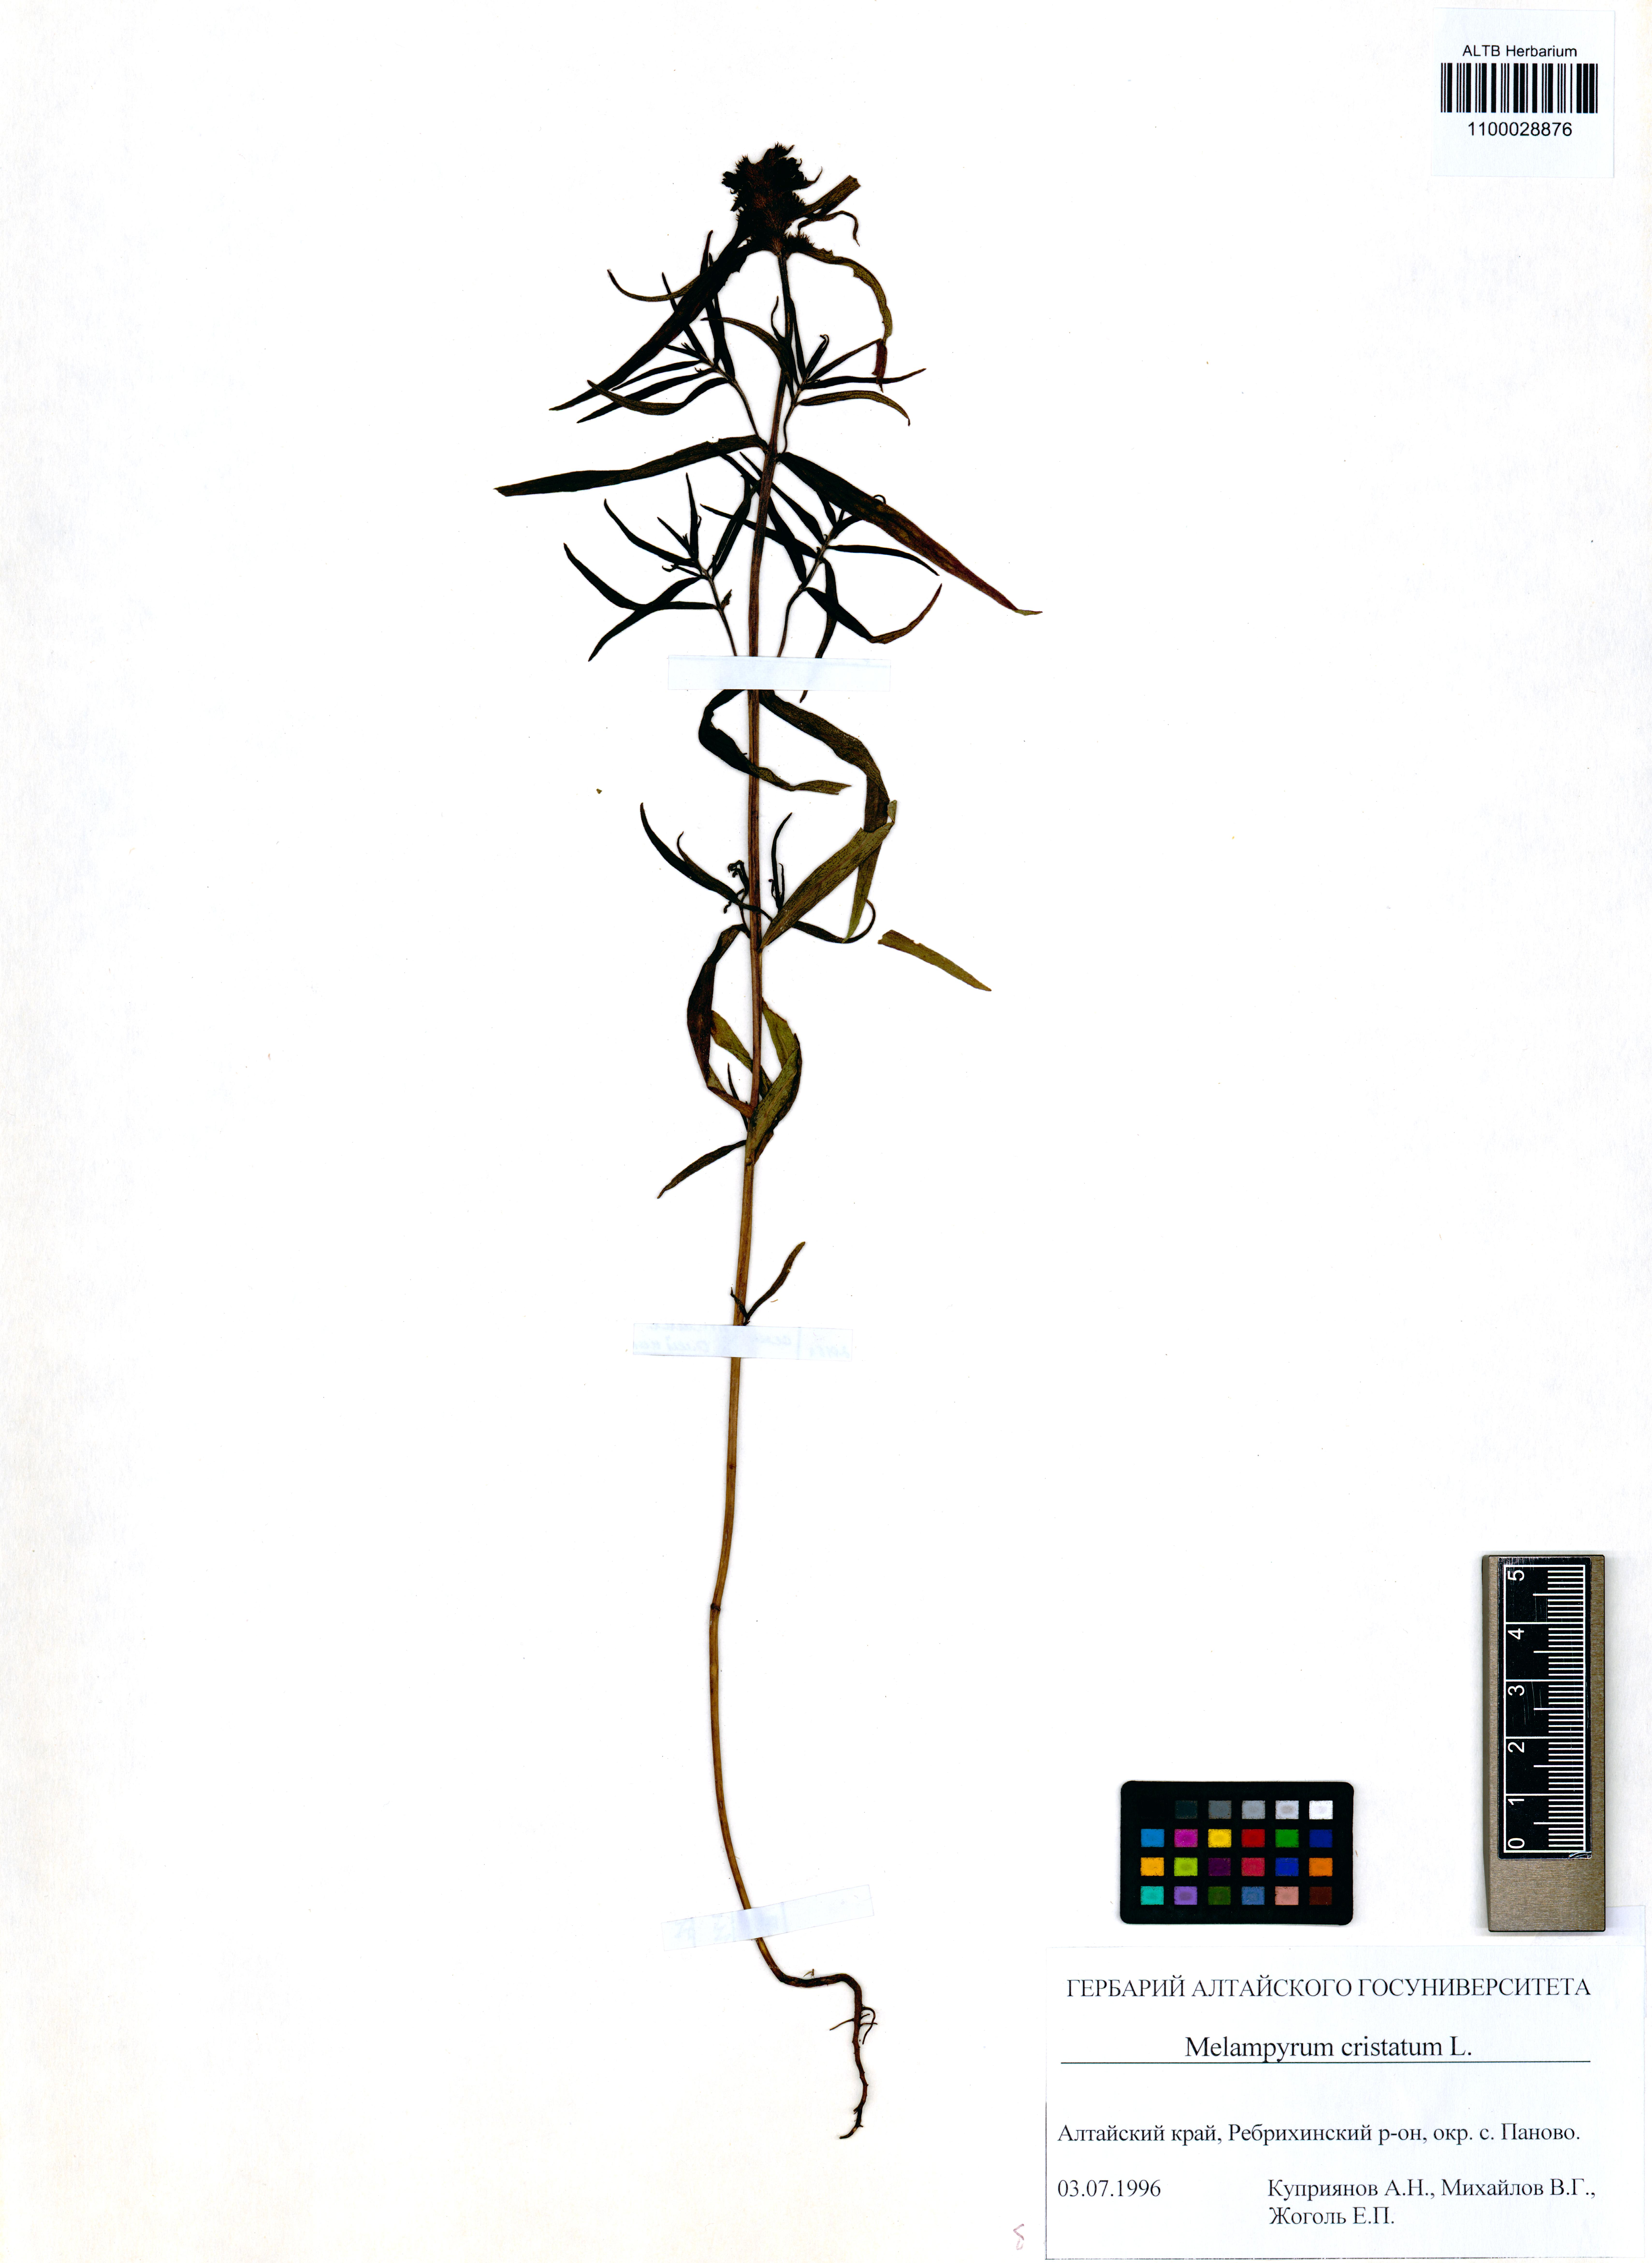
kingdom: Plantae
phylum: Tracheophyta
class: Magnoliopsida
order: Lamiales
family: Orobanchaceae
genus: Melampyrum
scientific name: Melampyrum cristatum
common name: Crested cow-wheat
